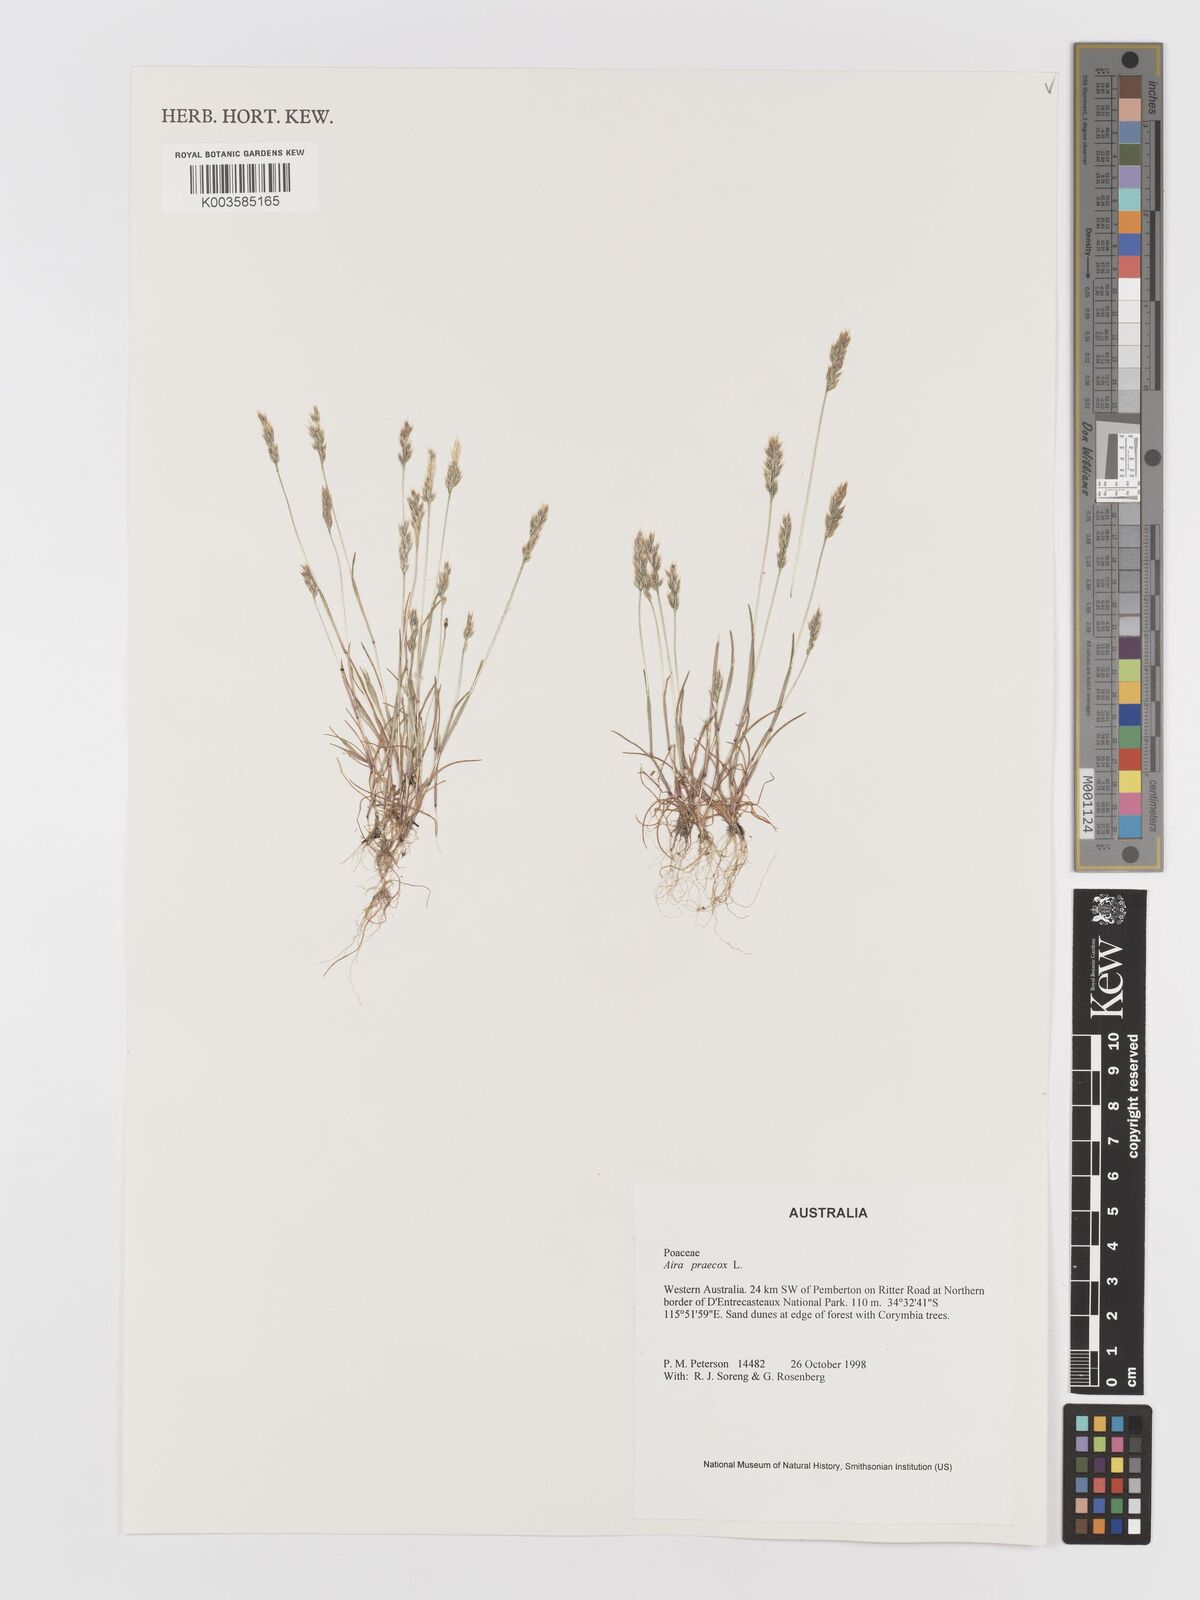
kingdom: Plantae
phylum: Tracheophyta
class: Liliopsida
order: Poales
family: Poaceae
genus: Aira
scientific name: Aira praecox
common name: Early hair-grass
